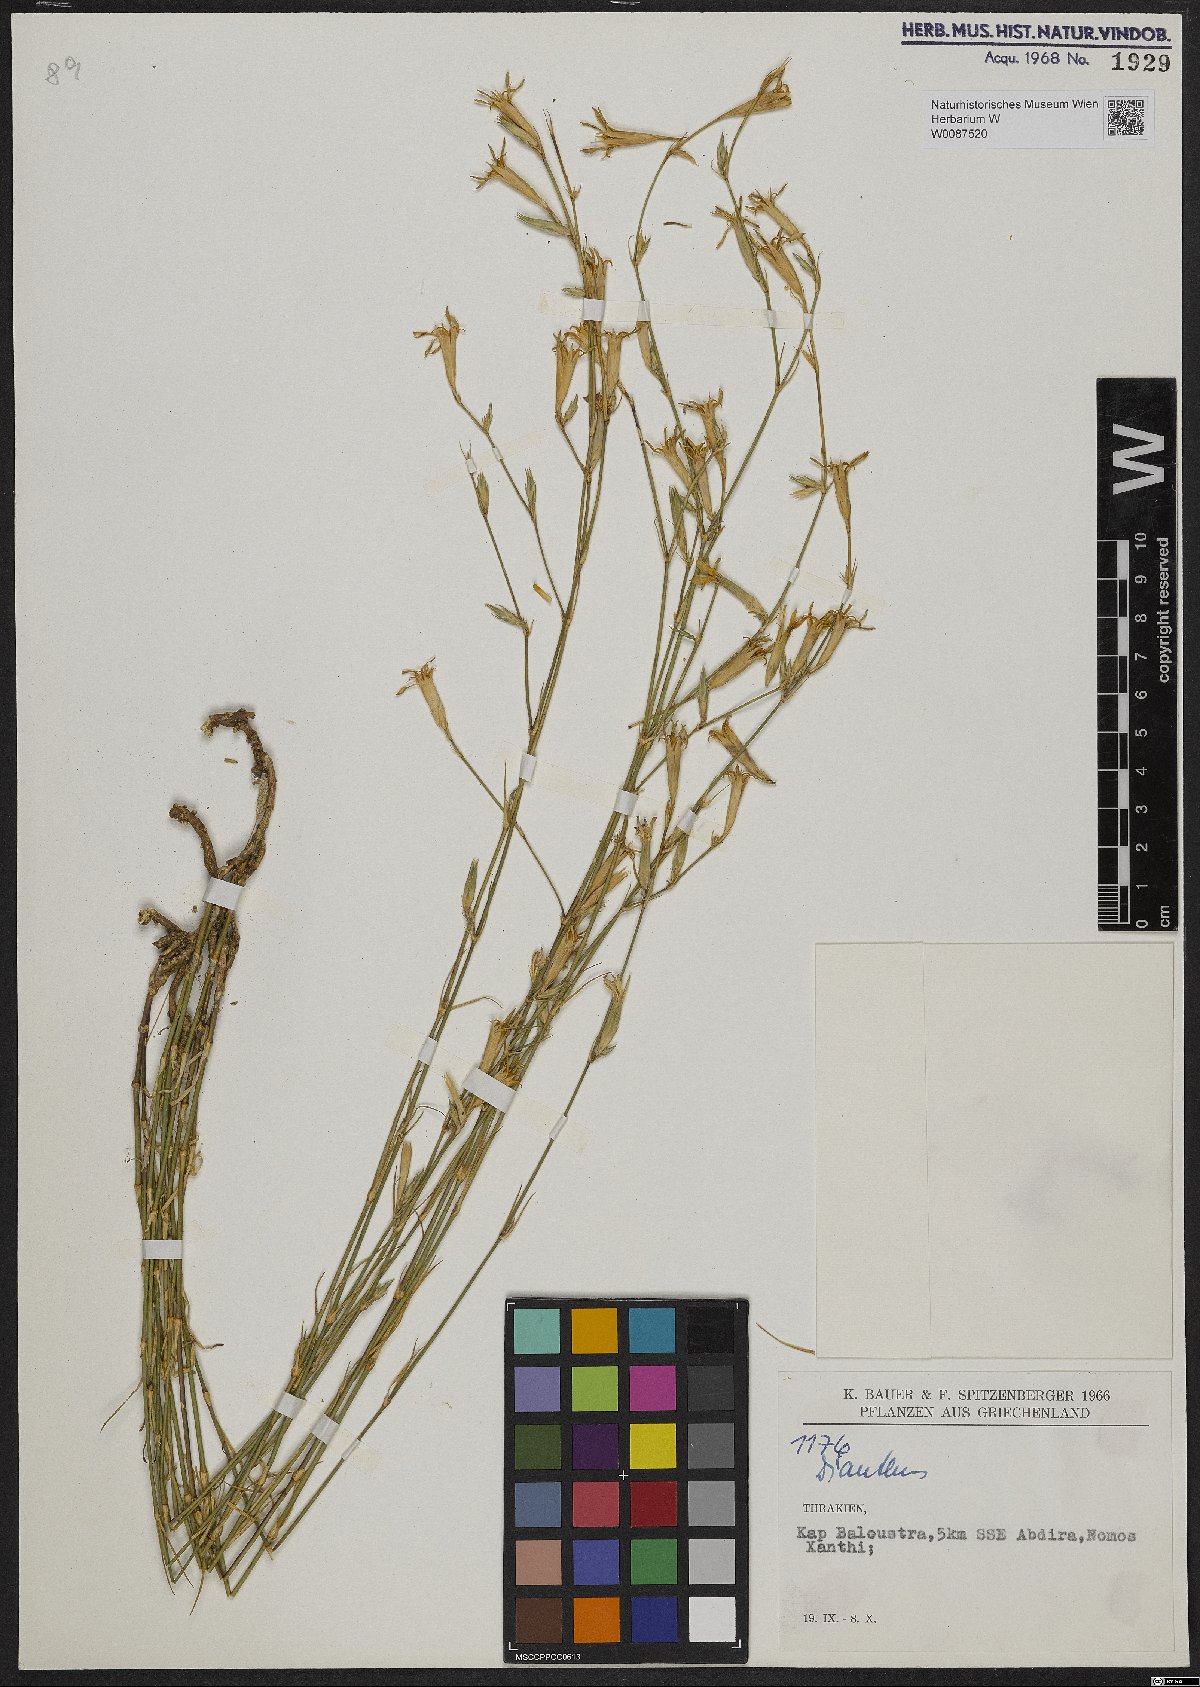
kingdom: Plantae
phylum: Tracheophyta
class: Magnoliopsida
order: Caryophyllales
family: Caryophyllaceae
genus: Dianthus
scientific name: Dianthus
